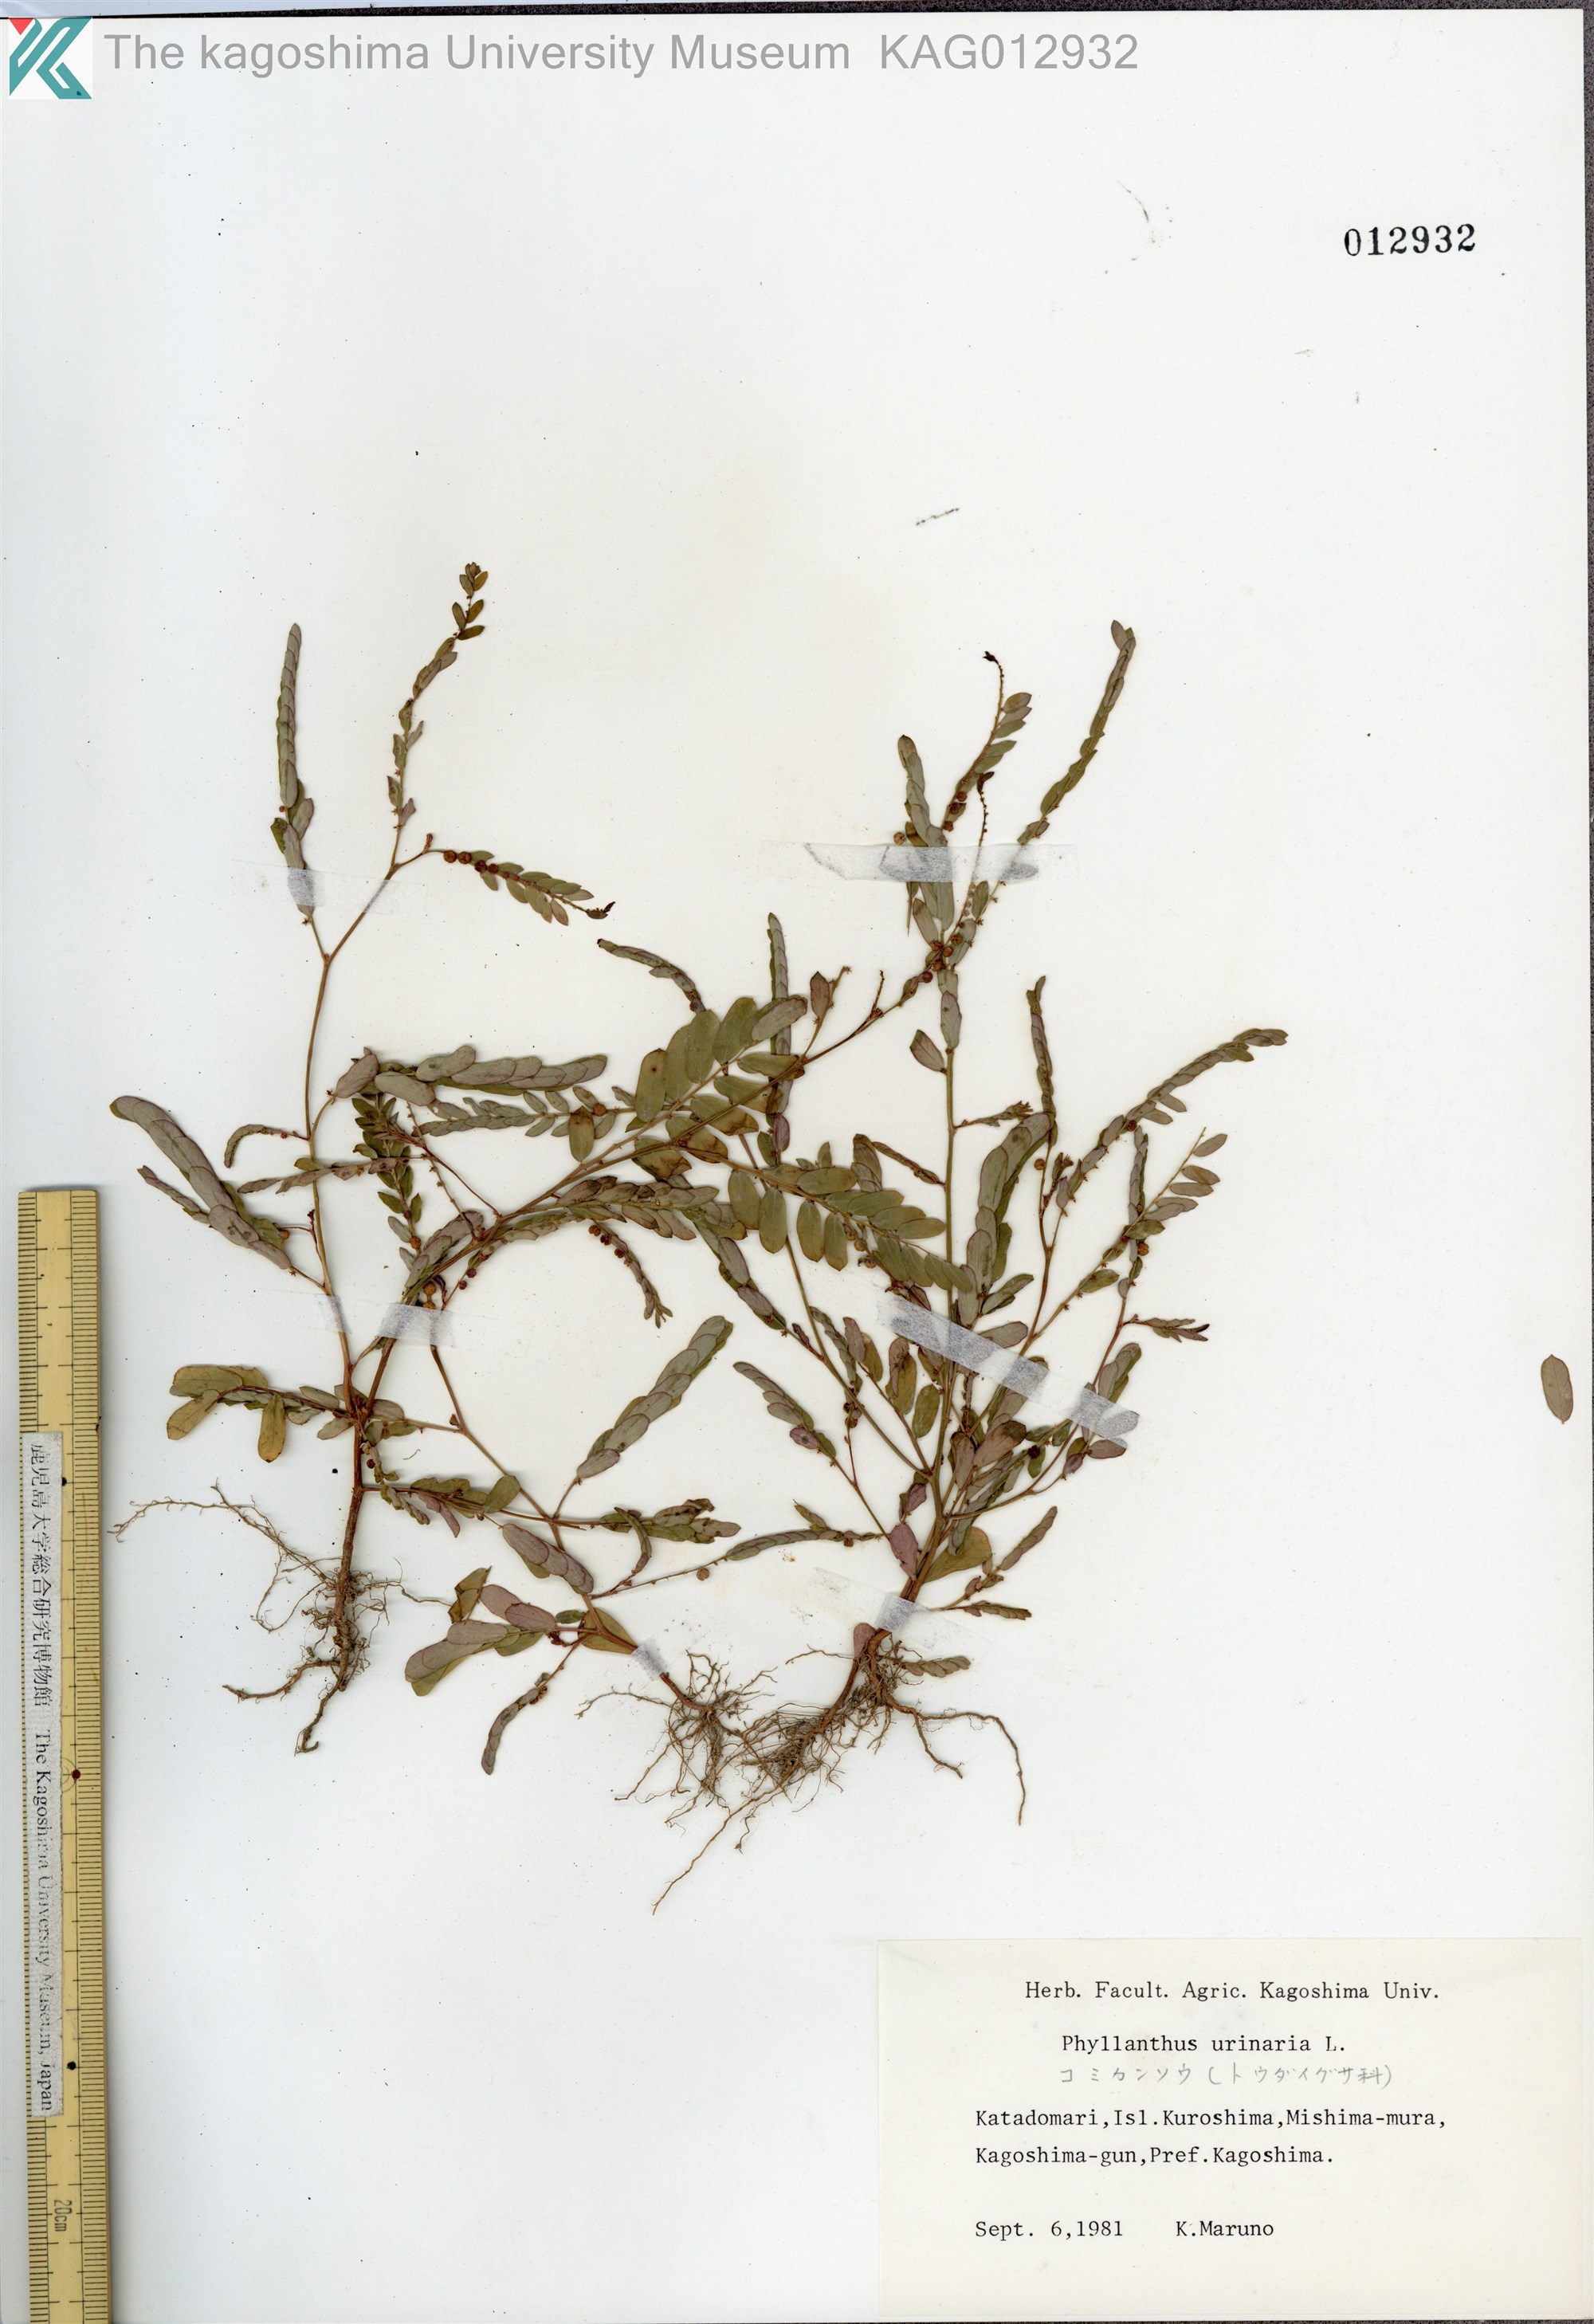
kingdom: Plantae
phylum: Tracheophyta
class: Magnoliopsida
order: Malpighiales
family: Phyllanthaceae
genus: Phyllanthus
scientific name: Phyllanthus urinaria
